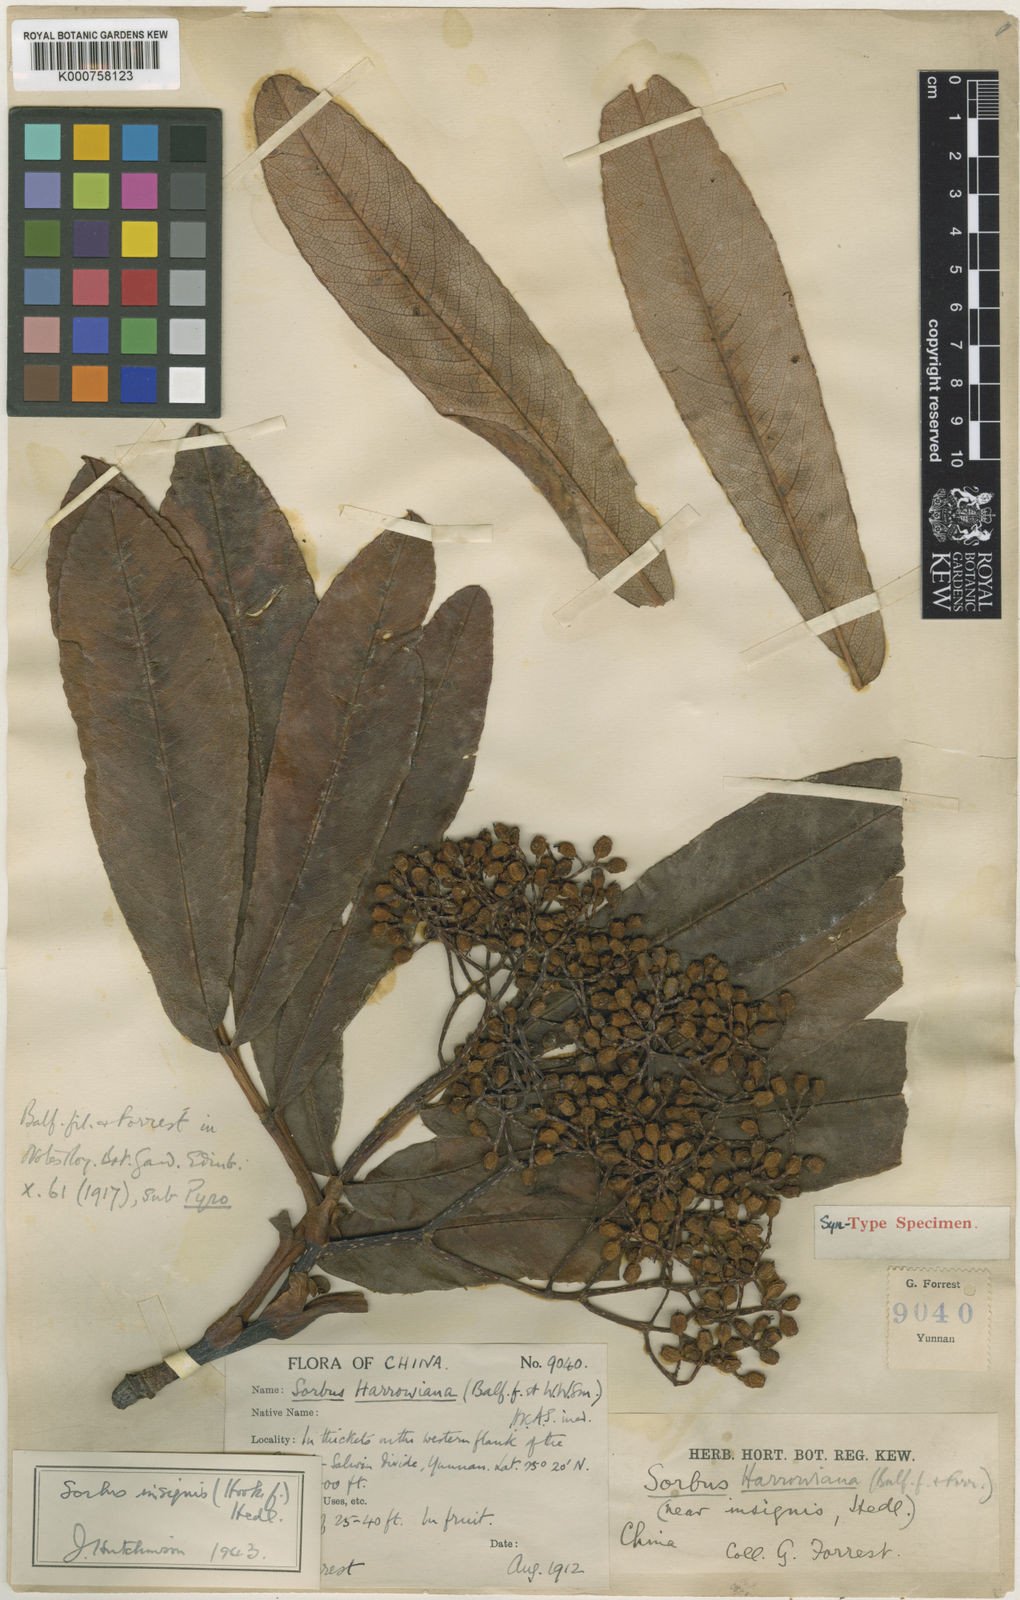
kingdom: Plantae
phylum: Tracheophyta
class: Magnoliopsida
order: Rosales
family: Rosaceae
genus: Sorbus
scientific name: Sorbus insignis
